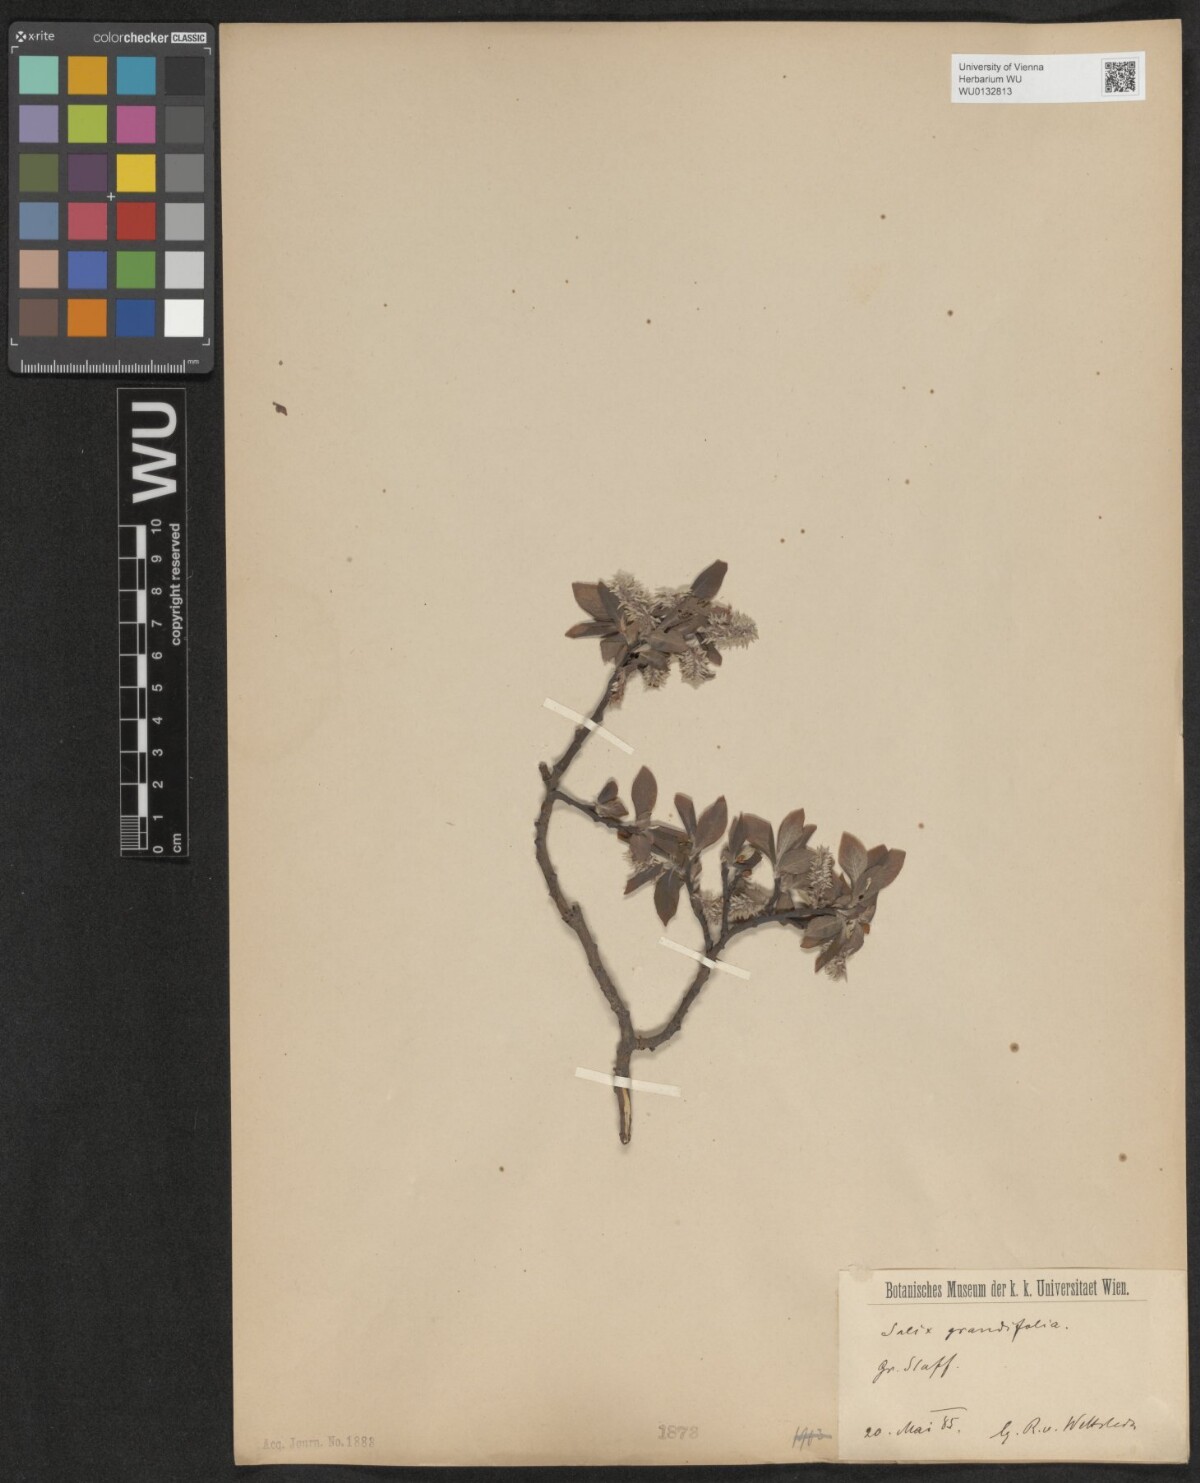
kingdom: Plantae
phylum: Tracheophyta
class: Magnoliopsida
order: Malpighiales
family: Salicaceae
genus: Salix
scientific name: Salix appendiculata
